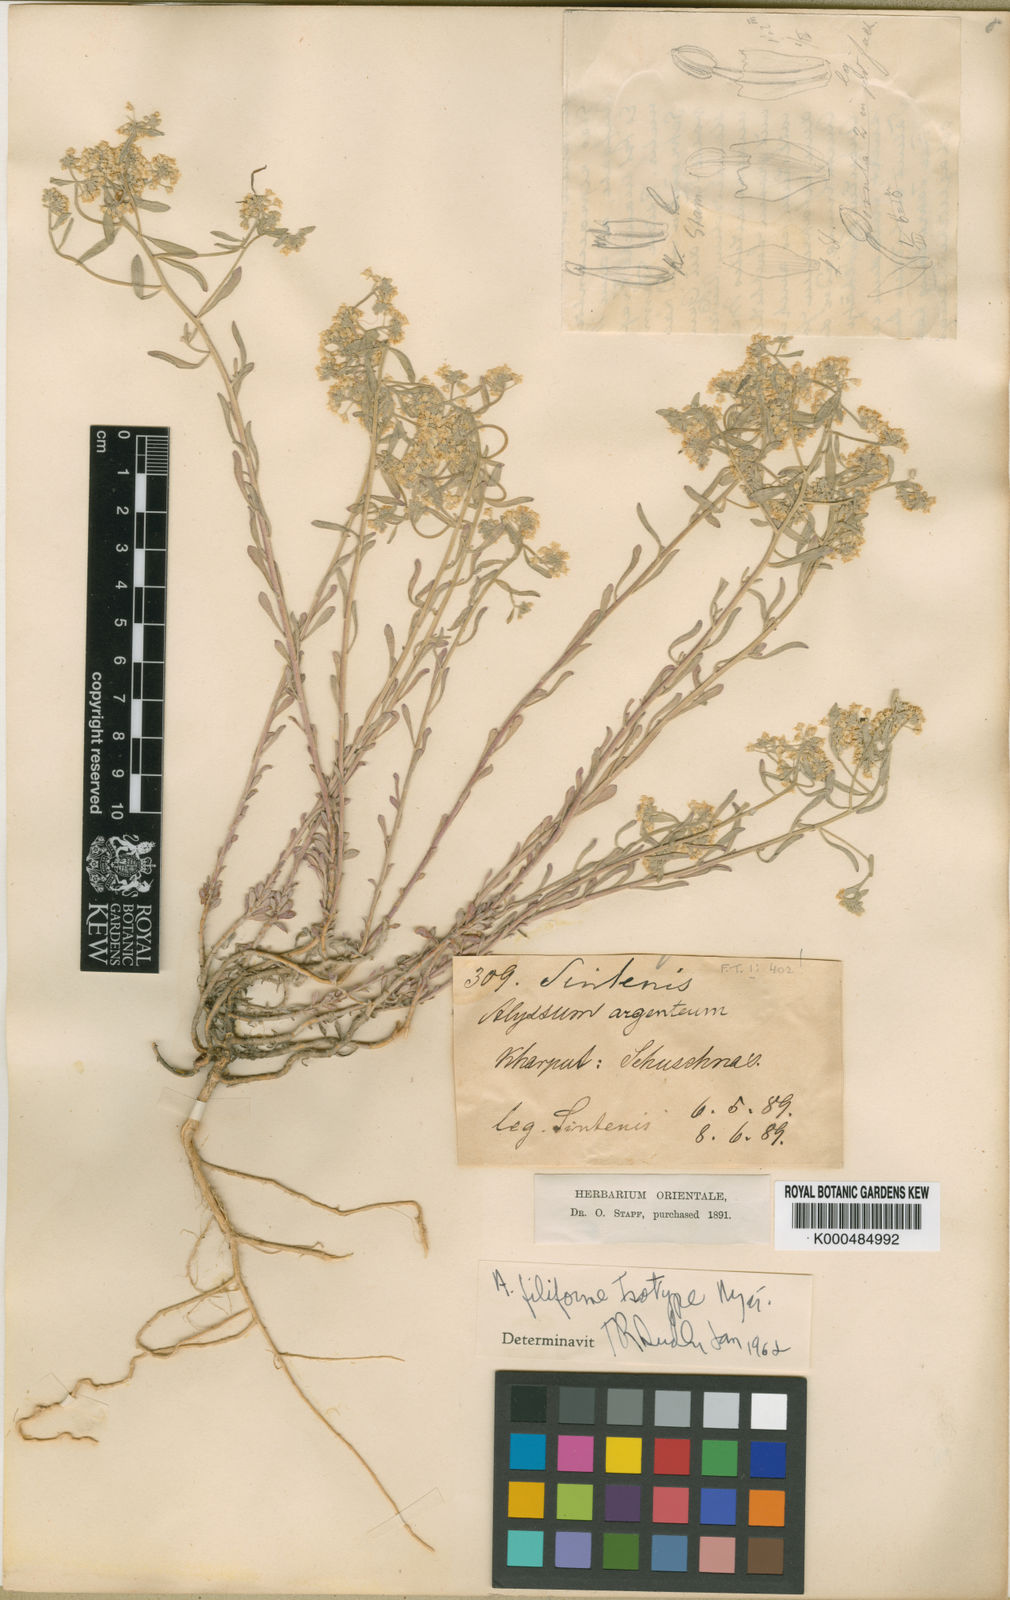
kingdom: Plantae
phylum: Tracheophyta
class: Magnoliopsida
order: Brassicales
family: Brassicaceae
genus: Odontarrhena
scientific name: Odontarrhena filiformis
